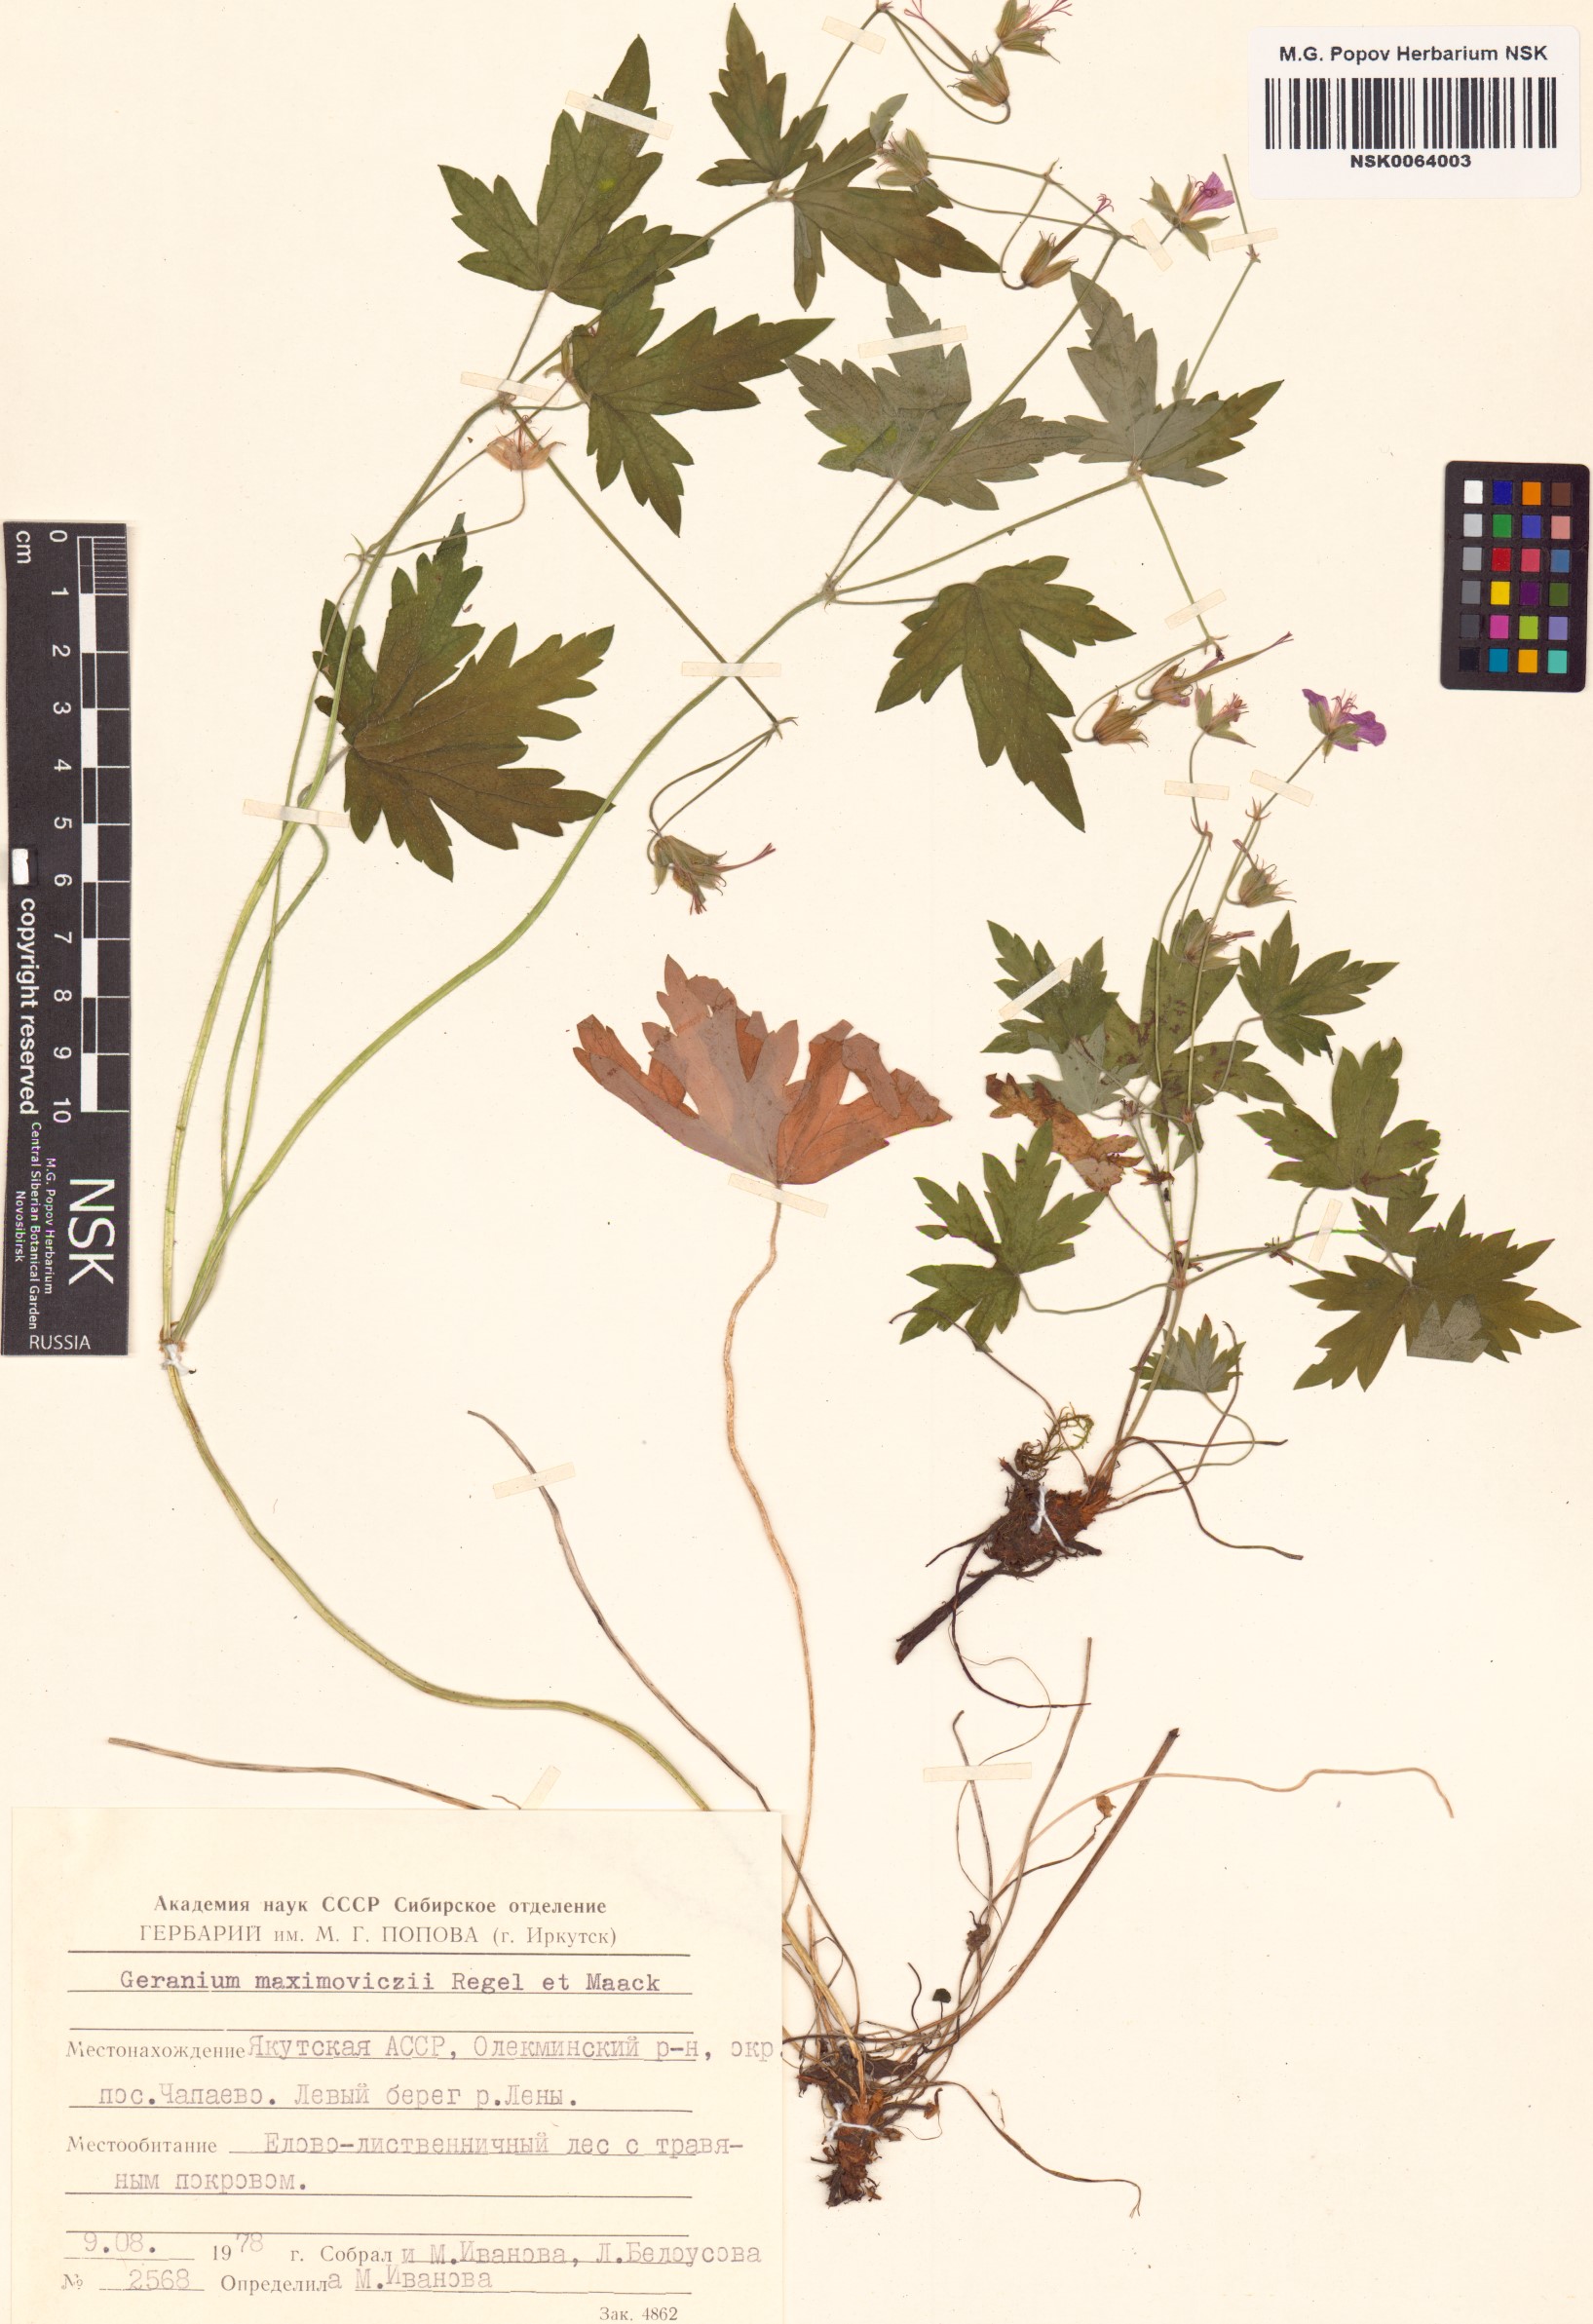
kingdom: Plantae
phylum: Tracheophyta
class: Magnoliopsida
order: Geraniales
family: Geraniaceae
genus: Geranium
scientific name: Geranium maximowiczii
